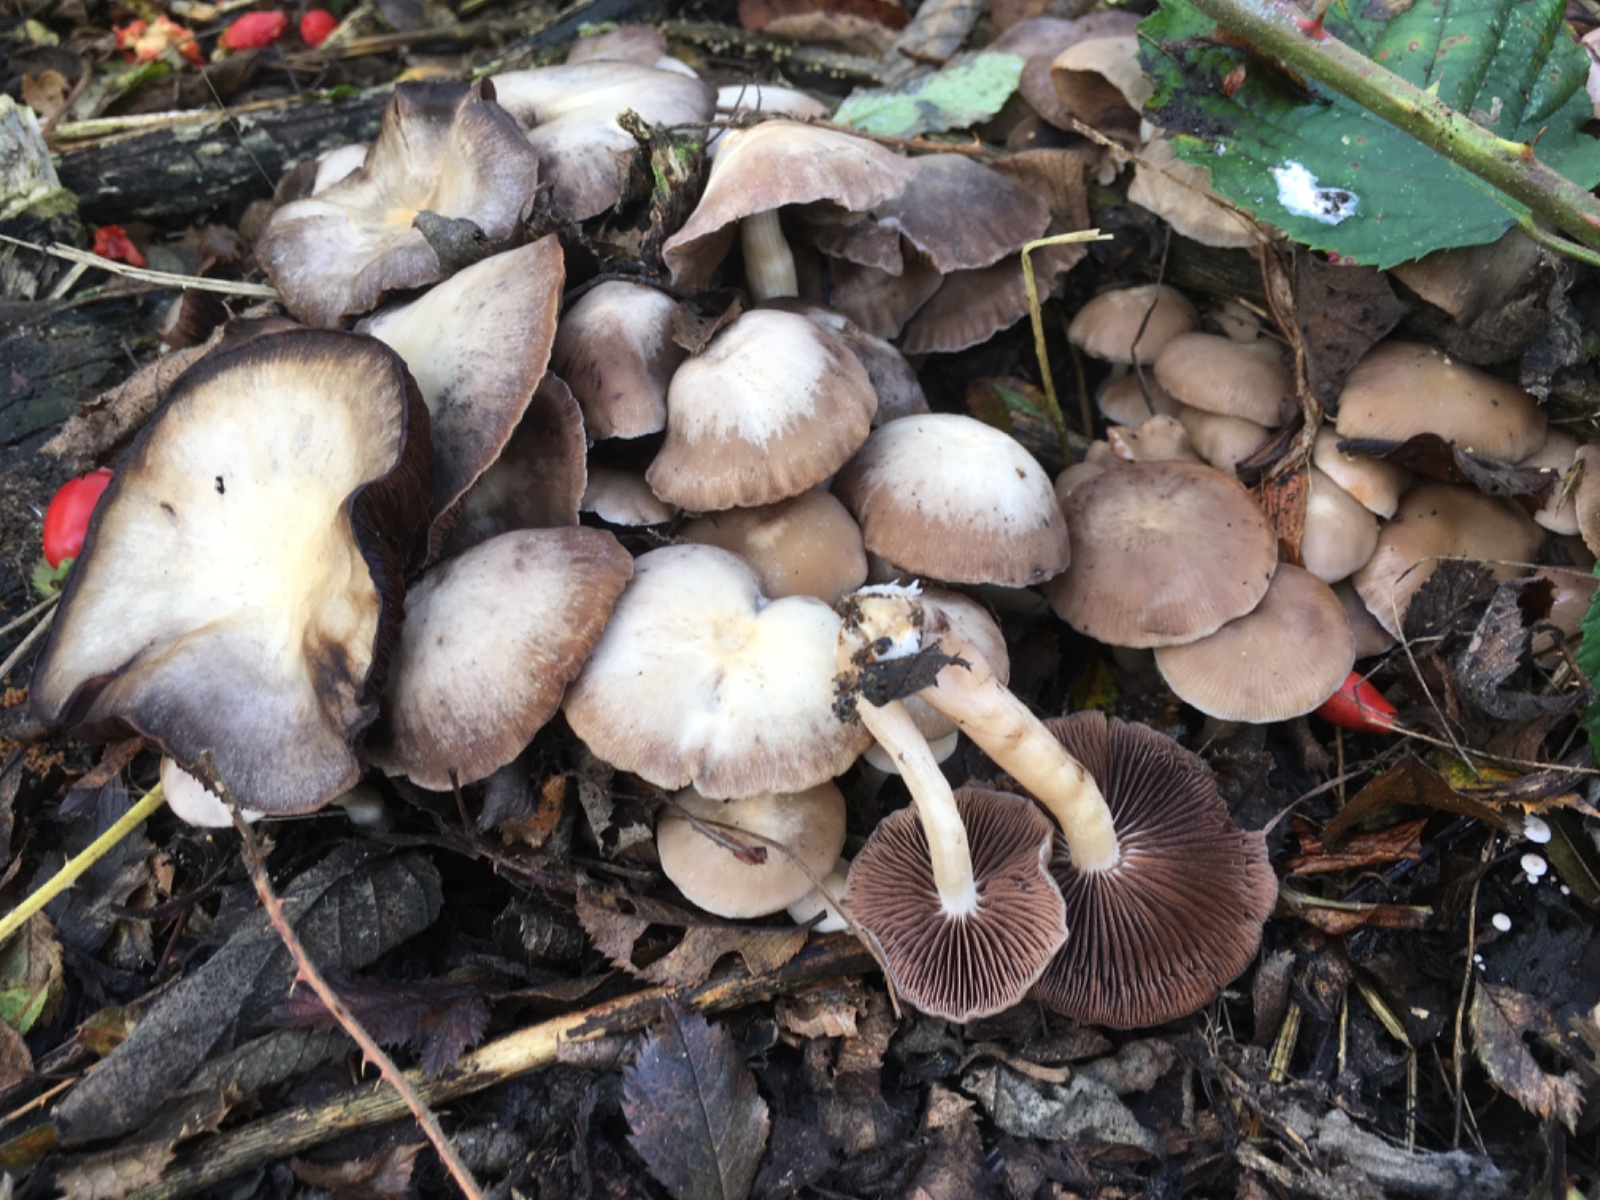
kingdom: Fungi
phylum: Basidiomycota
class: Agaricomycetes
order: Agaricales
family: Psathyrellaceae
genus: Psathyrella
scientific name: Psathyrella
